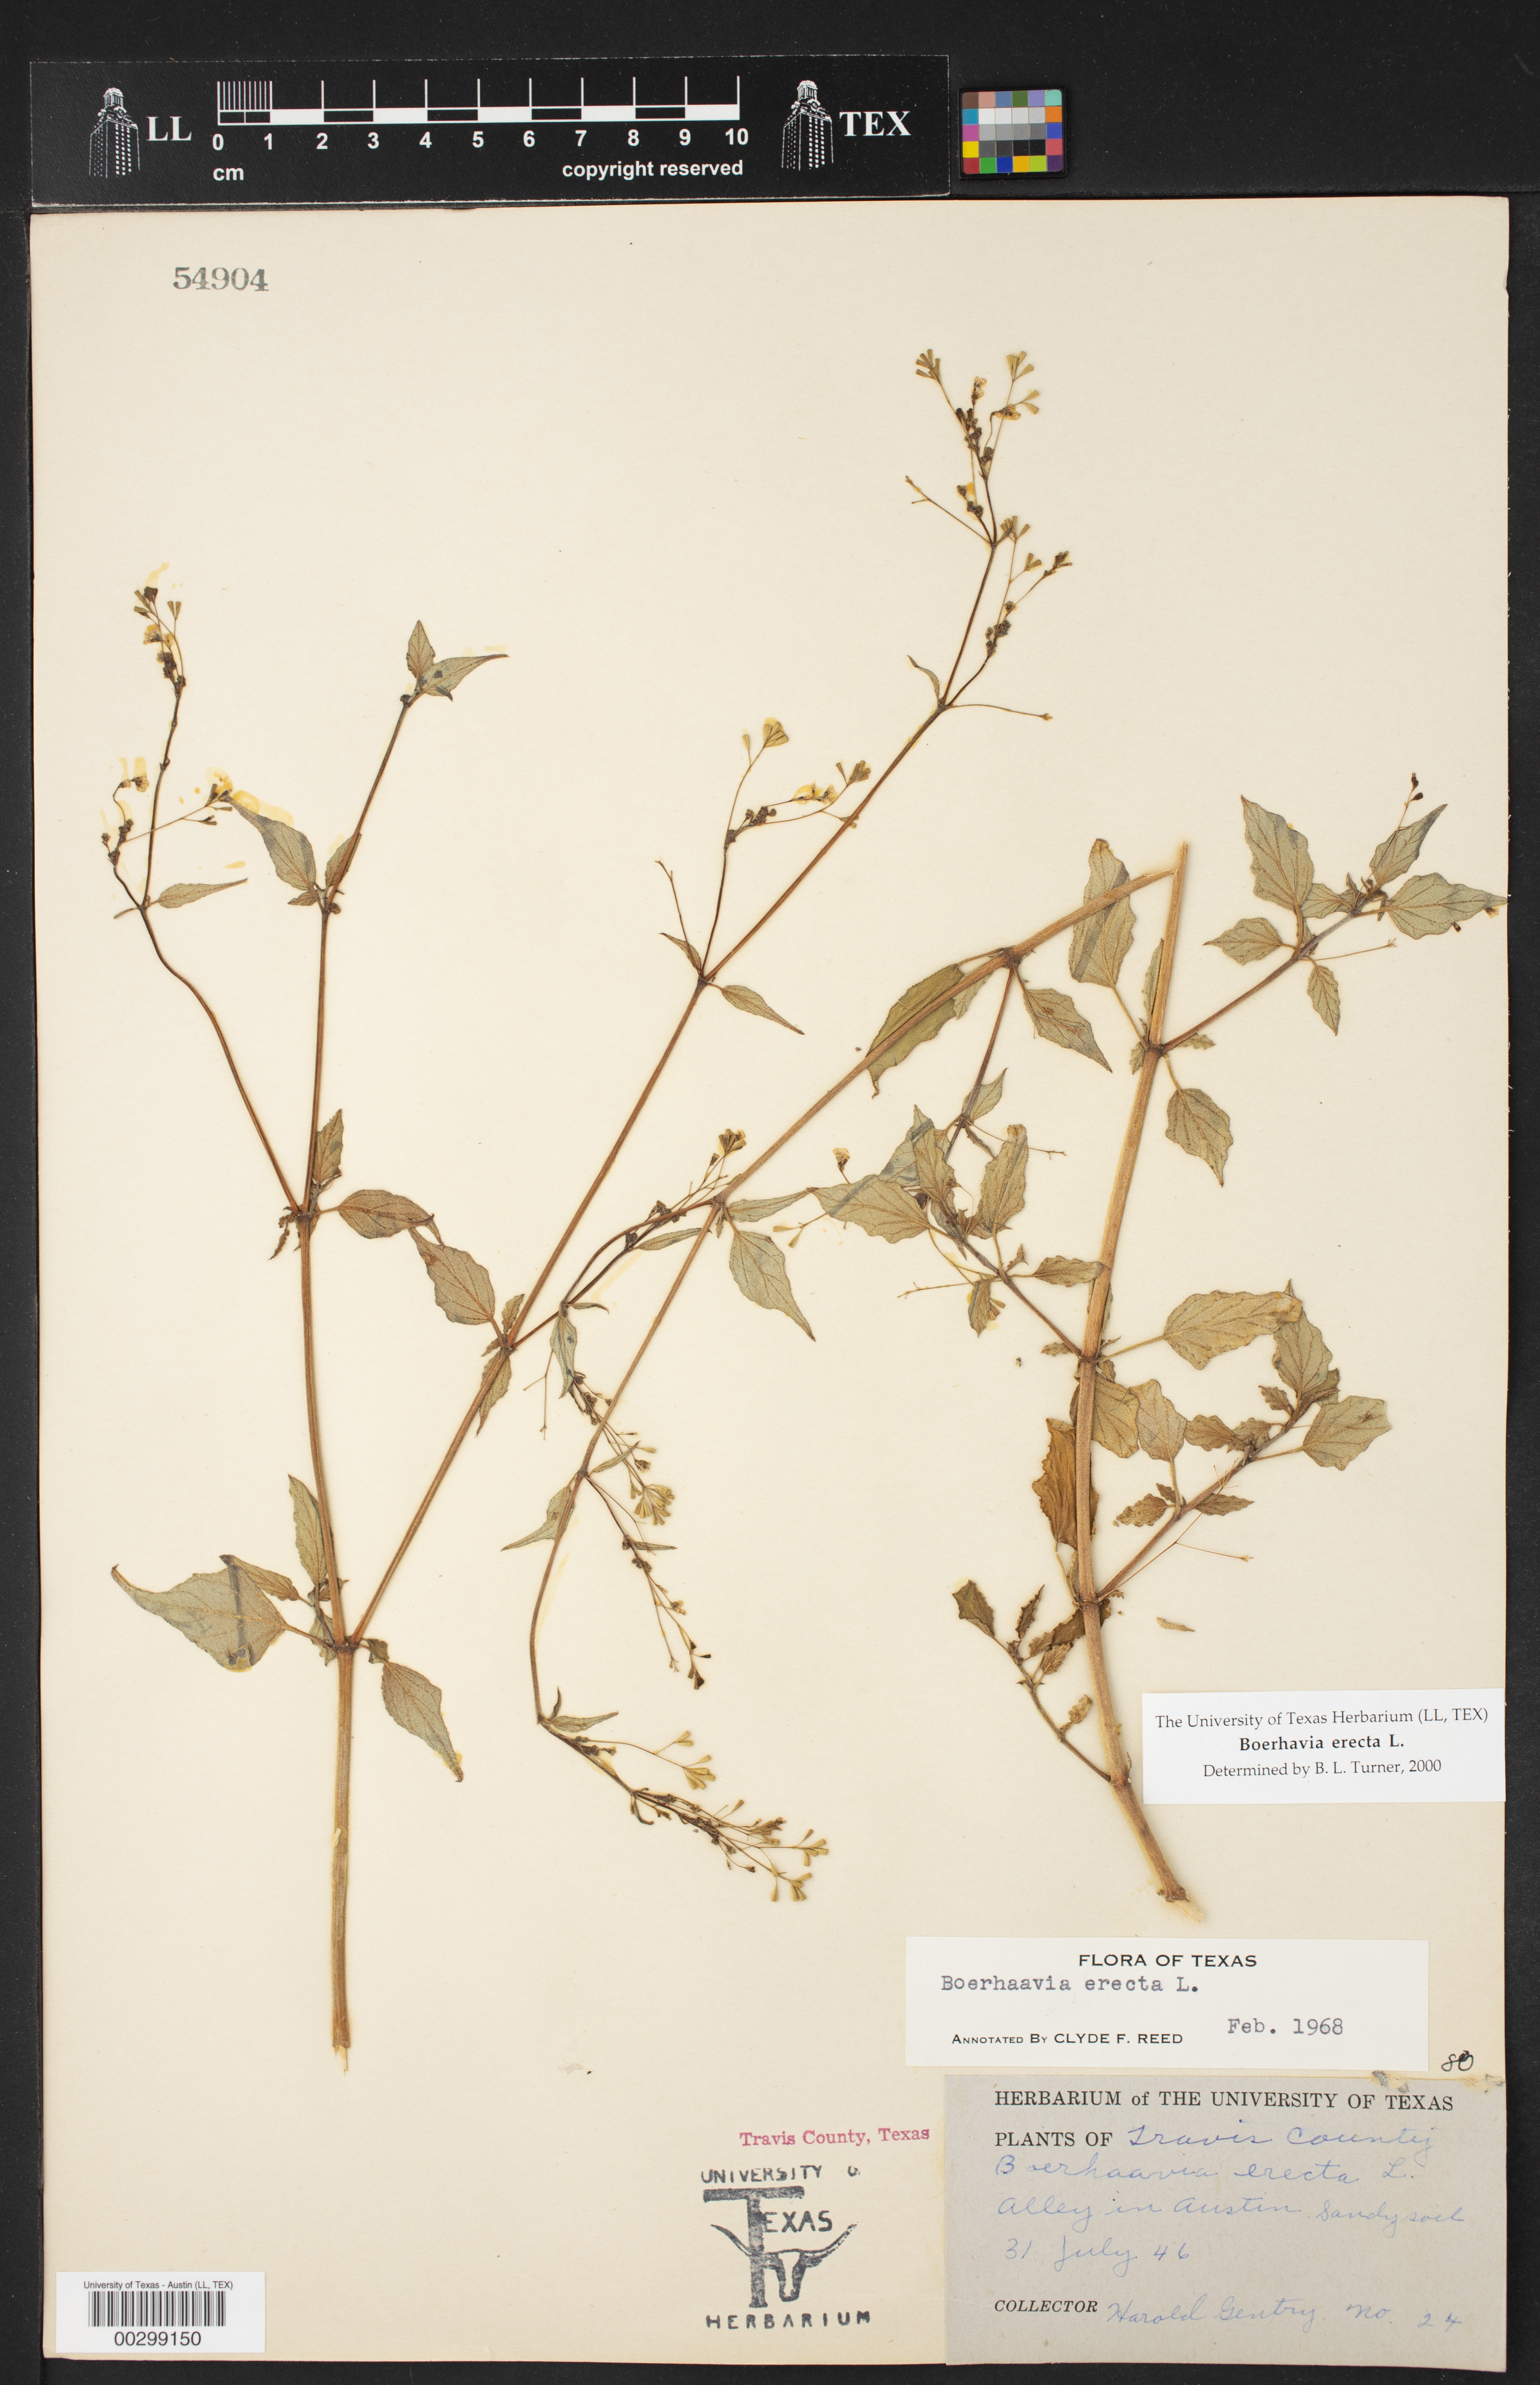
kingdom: Plantae
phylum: Tracheophyta
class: Magnoliopsida
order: Caryophyllales
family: Nyctaginaceae
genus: Boerhavia
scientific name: Boerhavia erecta
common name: Erect spiderling
